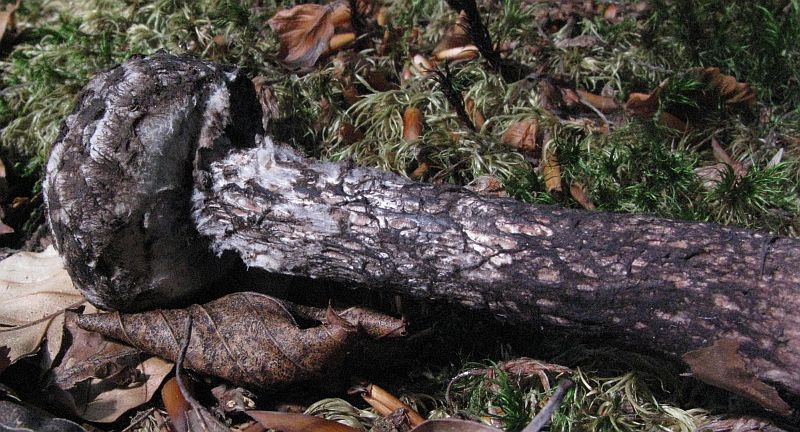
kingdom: Fungi
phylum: Basidiomycota
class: Agaricomycetes
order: Boletales
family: Boletaceae
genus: Strobilomyces
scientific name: Strobilomyces strobilaceus
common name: koglerørhat
